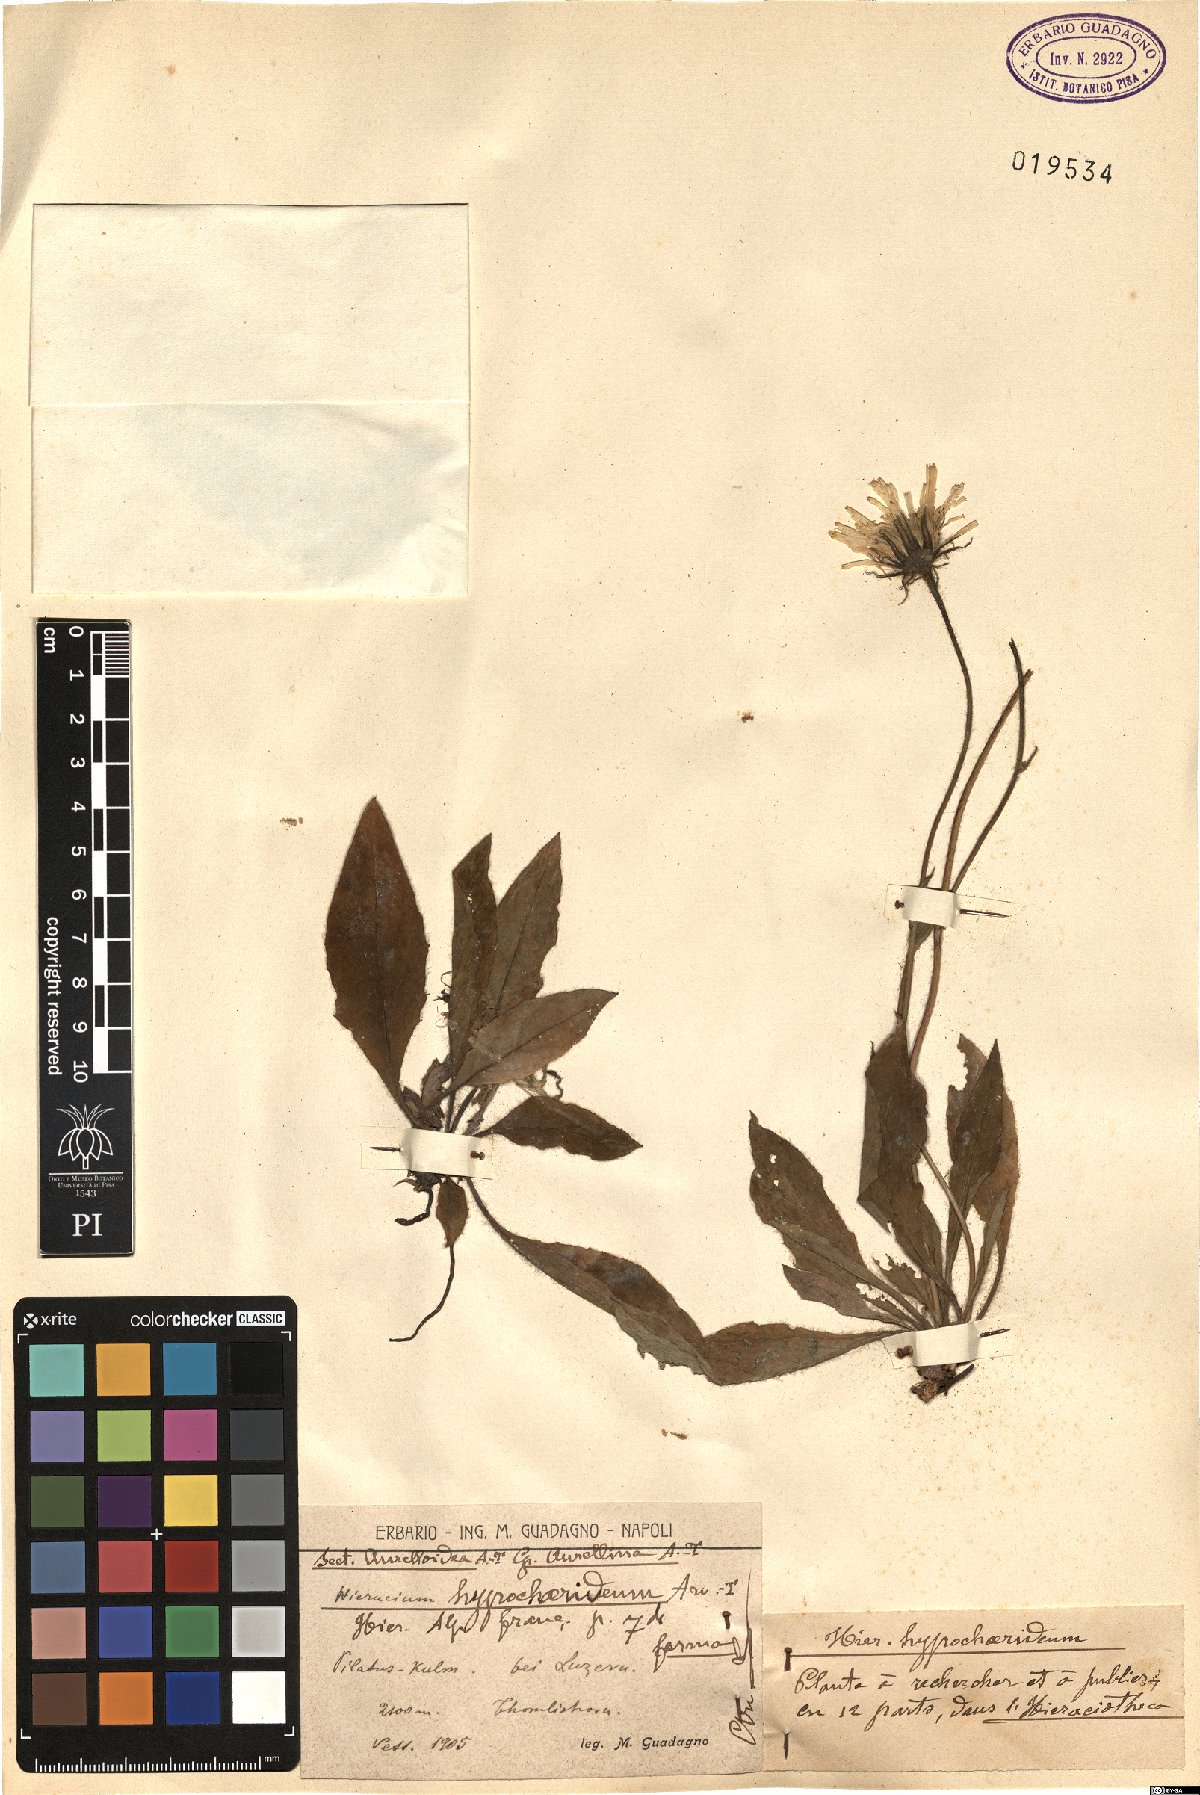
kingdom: Plantae
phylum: Tracheophyta
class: Magnoliopsida
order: Asterales
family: Asteraceae
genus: Hieracium
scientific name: Hieracium
